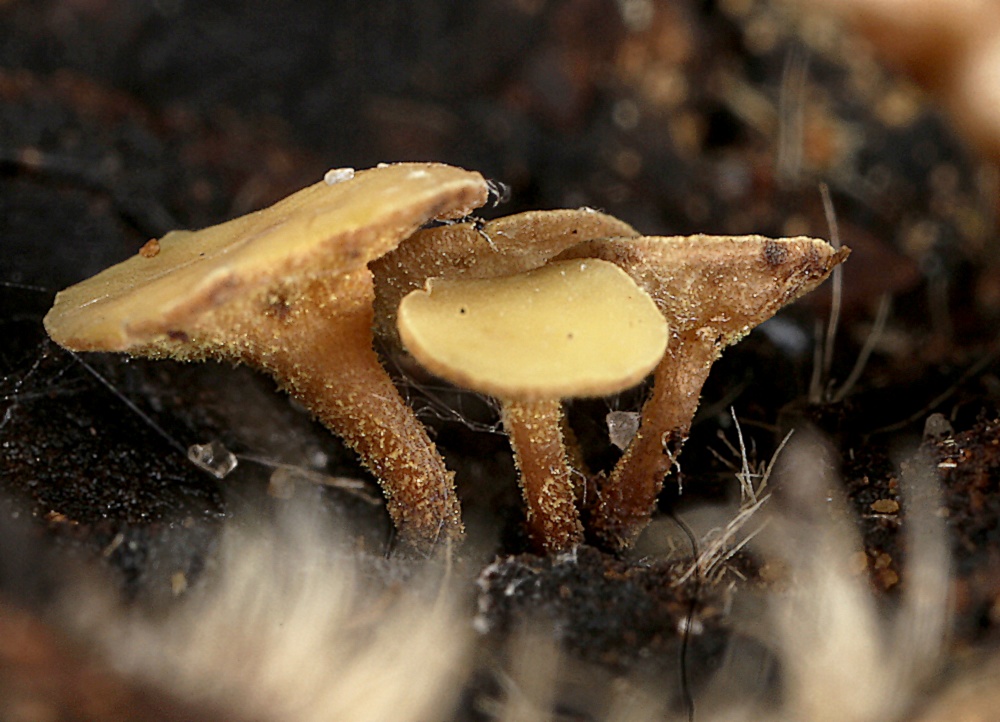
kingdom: Fungi
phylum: Ascomycota
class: Leotiomycetes
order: Helotiales
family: Sclerotiniaceae
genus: Ciboria
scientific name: Ciboria americana
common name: kastanie-knoldskive
